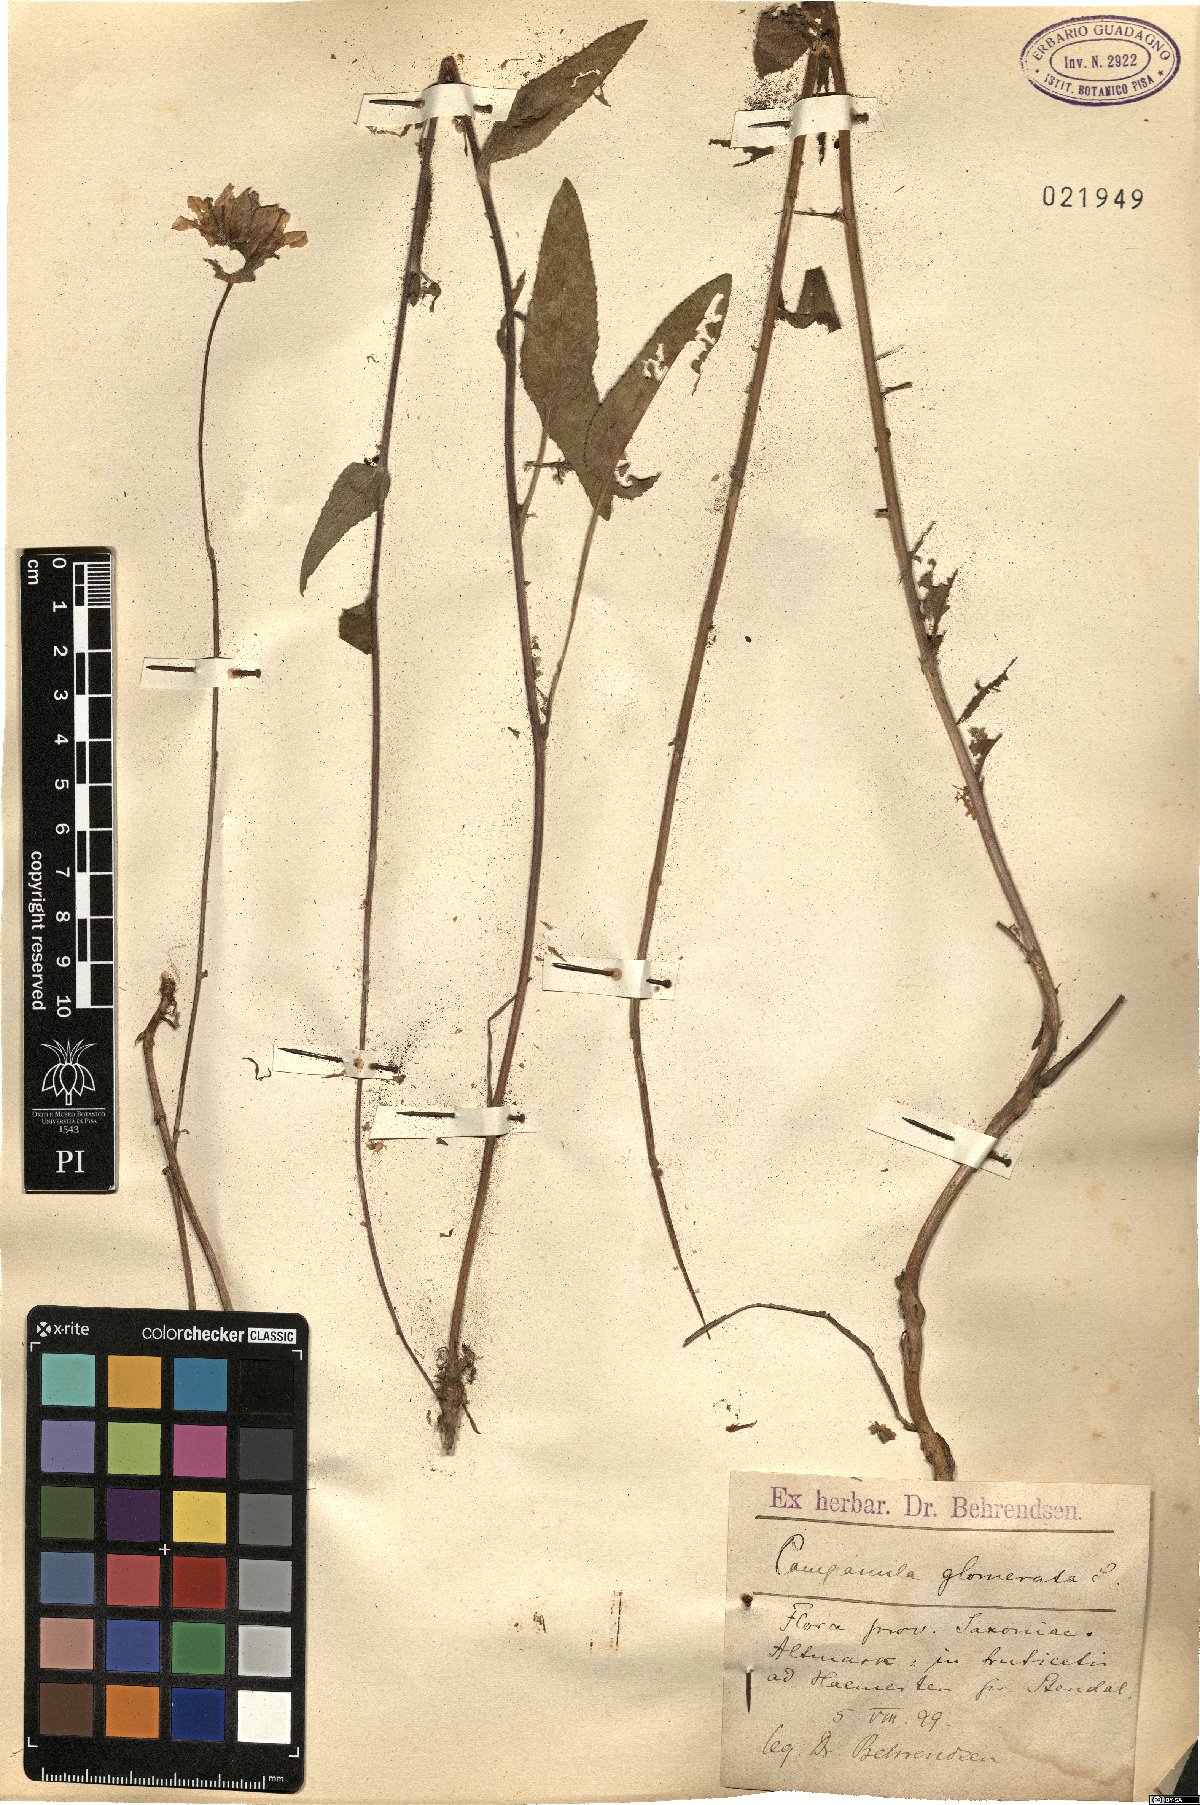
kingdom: Plantae
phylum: Tracheophyta
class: Magnoliopsida
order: Asterales
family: Campanulaceae
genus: Campanula
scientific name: Campanula glomerata
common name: Clustered bellflower
